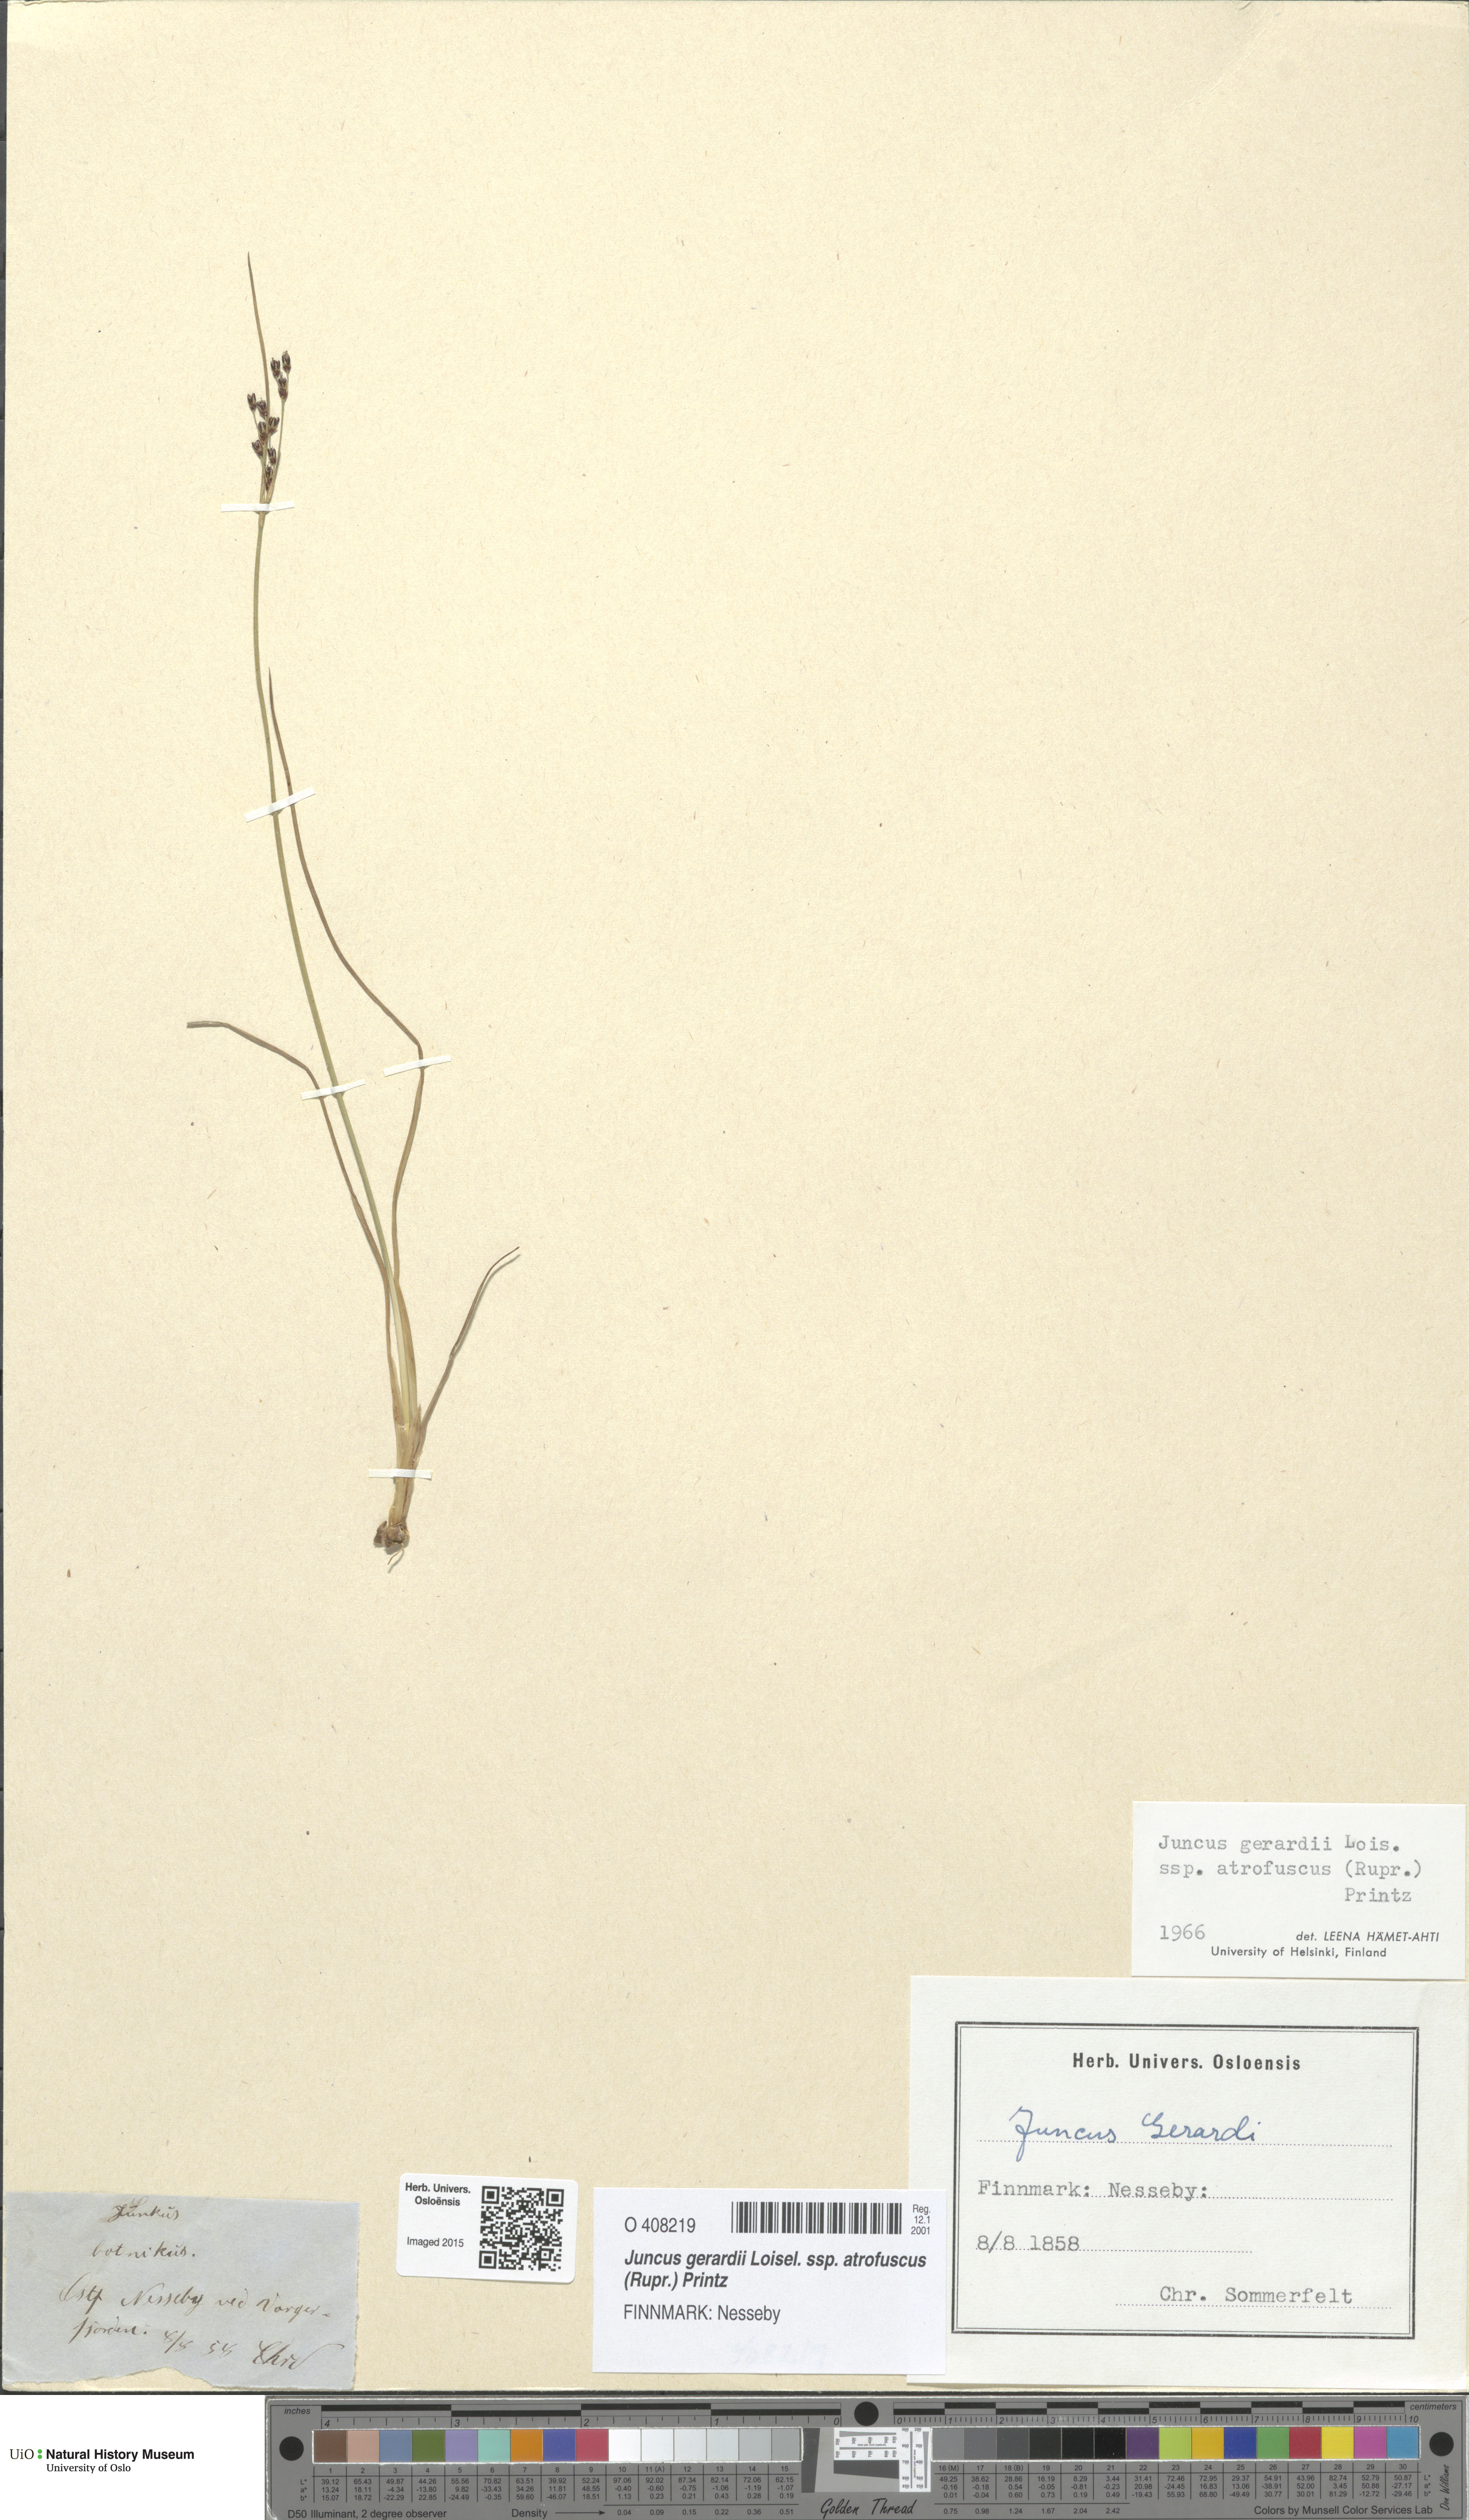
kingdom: Plantae
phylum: Tracheophyta
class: Liliopsida
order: Poales
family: Juncaceae
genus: Juncus
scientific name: Juncus gerardi
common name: Saltmarsh rush
